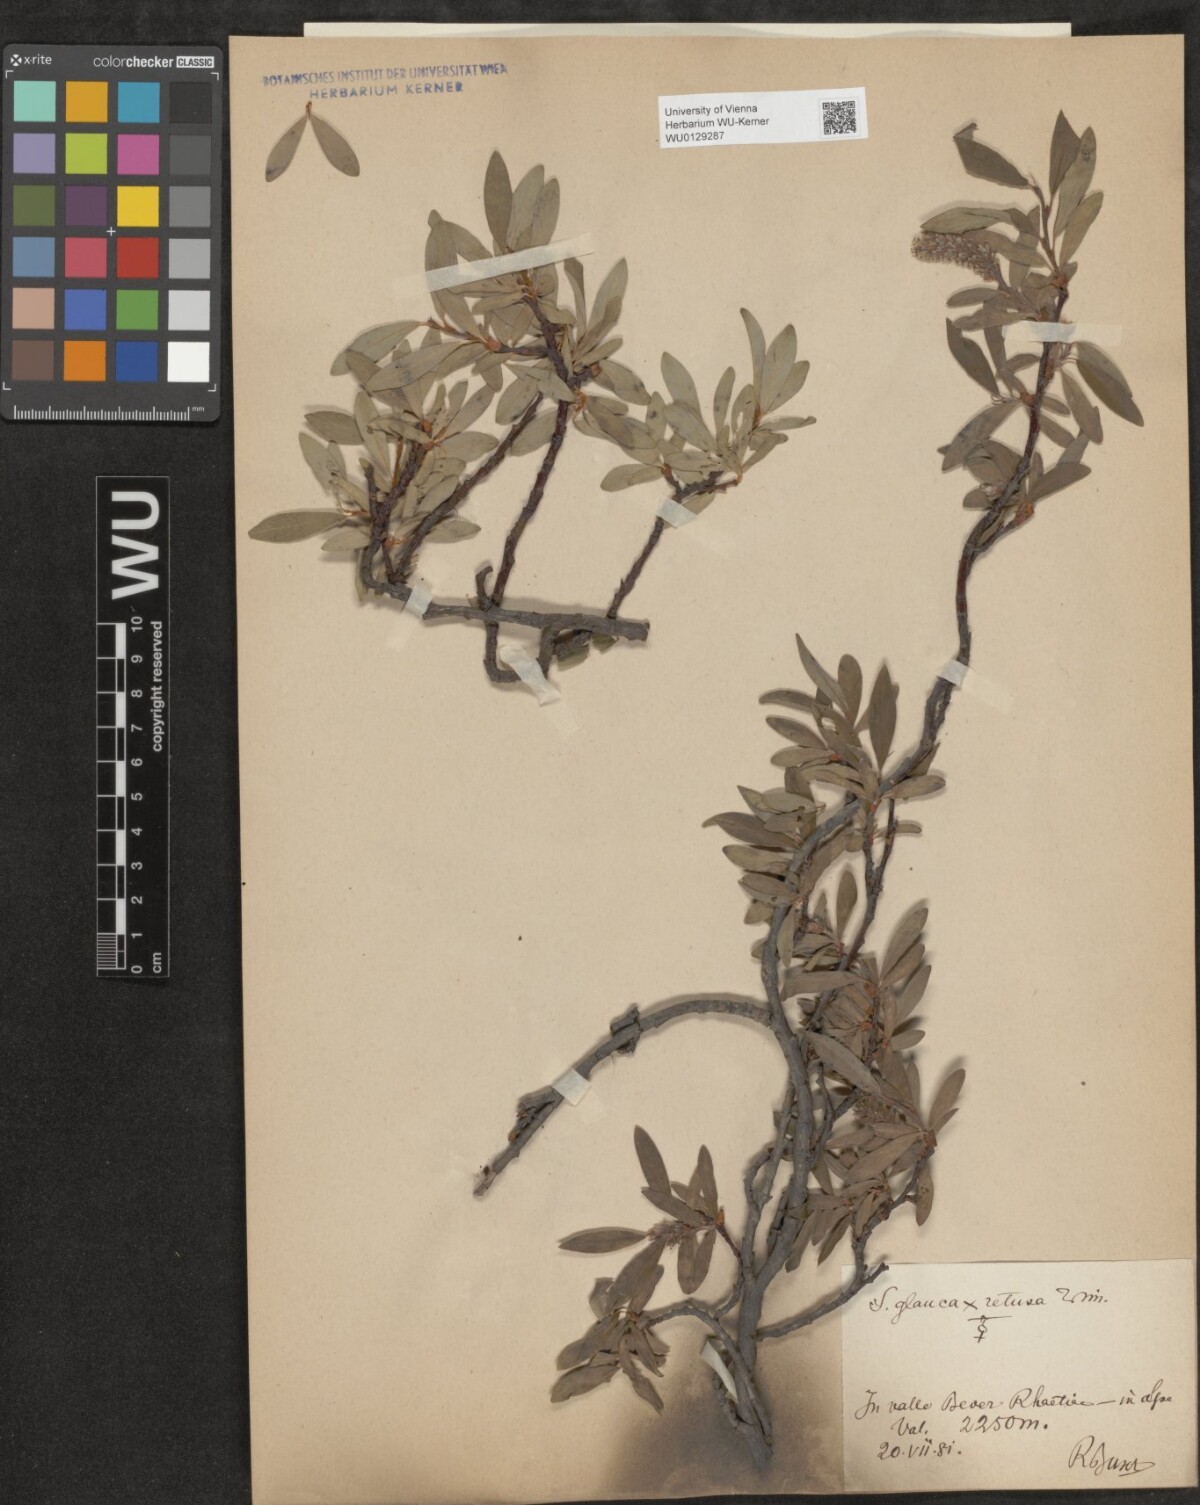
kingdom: Plantae
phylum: Tracheophyta
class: Magnoliopsida
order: Malpighiales
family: Salicaceae
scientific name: Salicaceae
